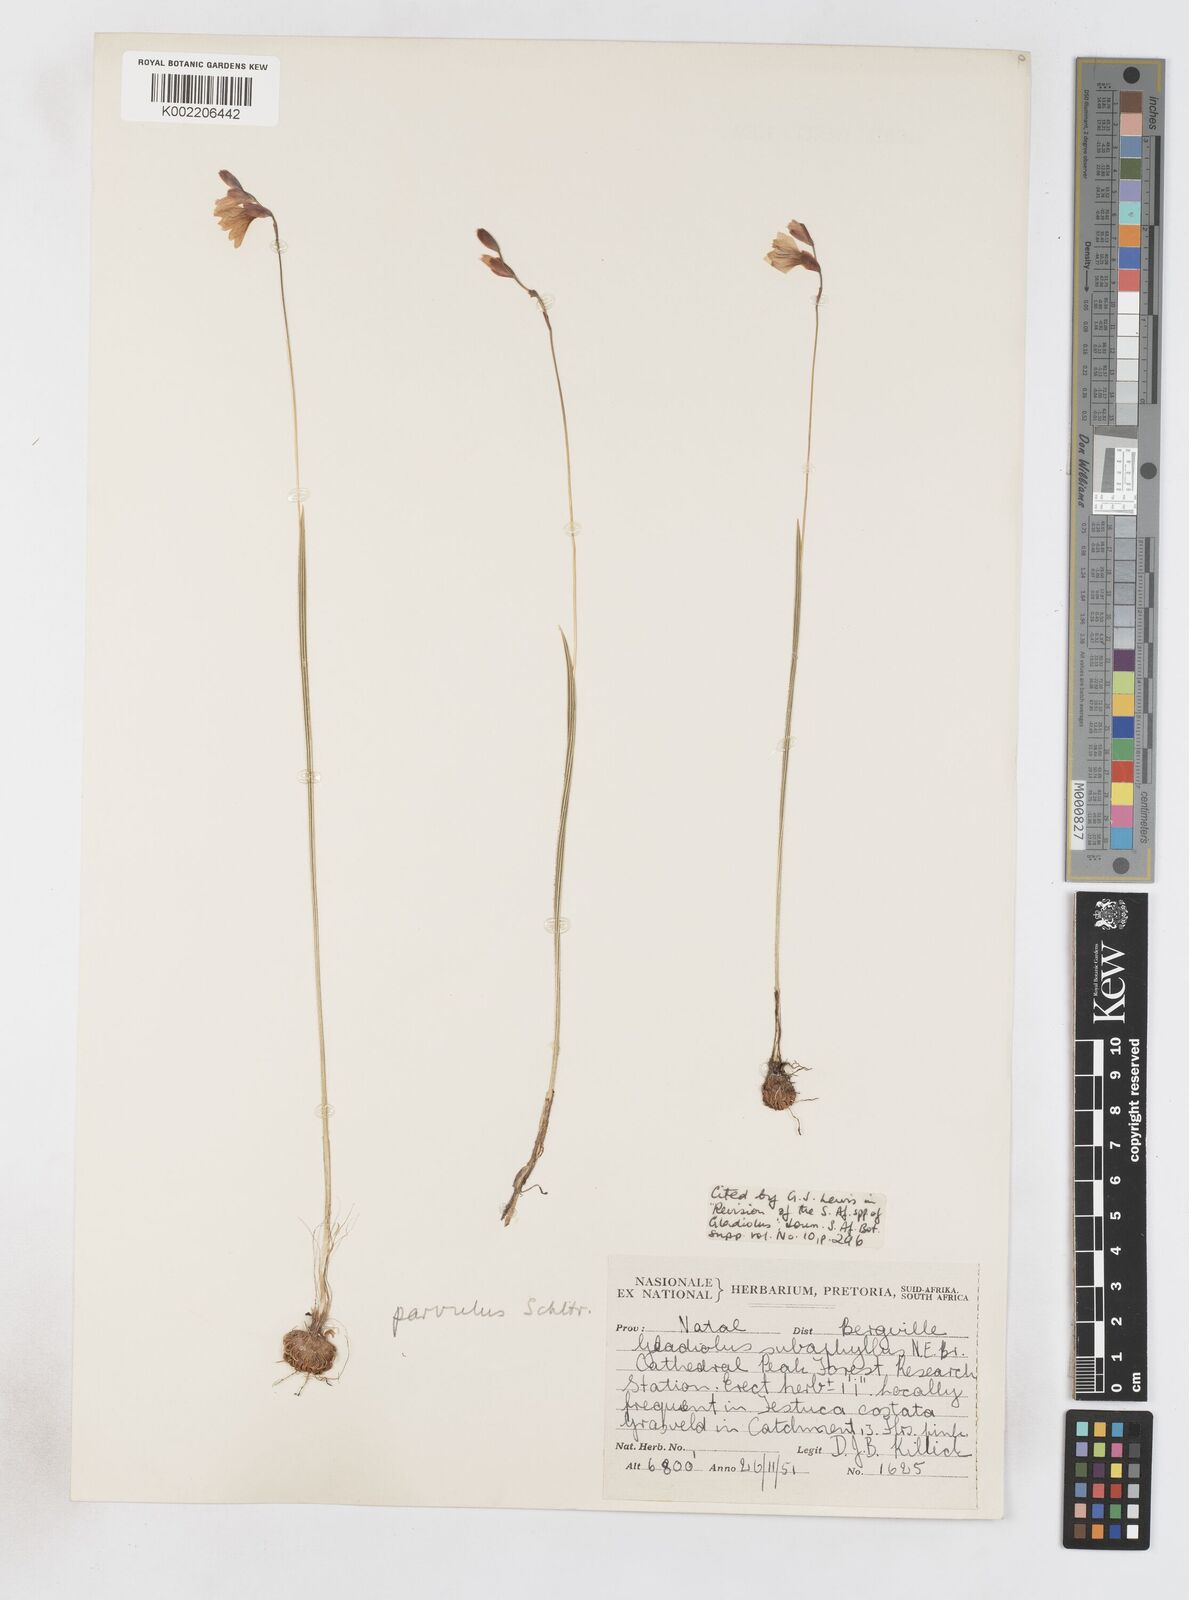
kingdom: Plantae
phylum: Tracheophyta
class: Liliopsida
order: Asparagales
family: Iridaceae
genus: Gladiolus
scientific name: Gladiolus parvulus
